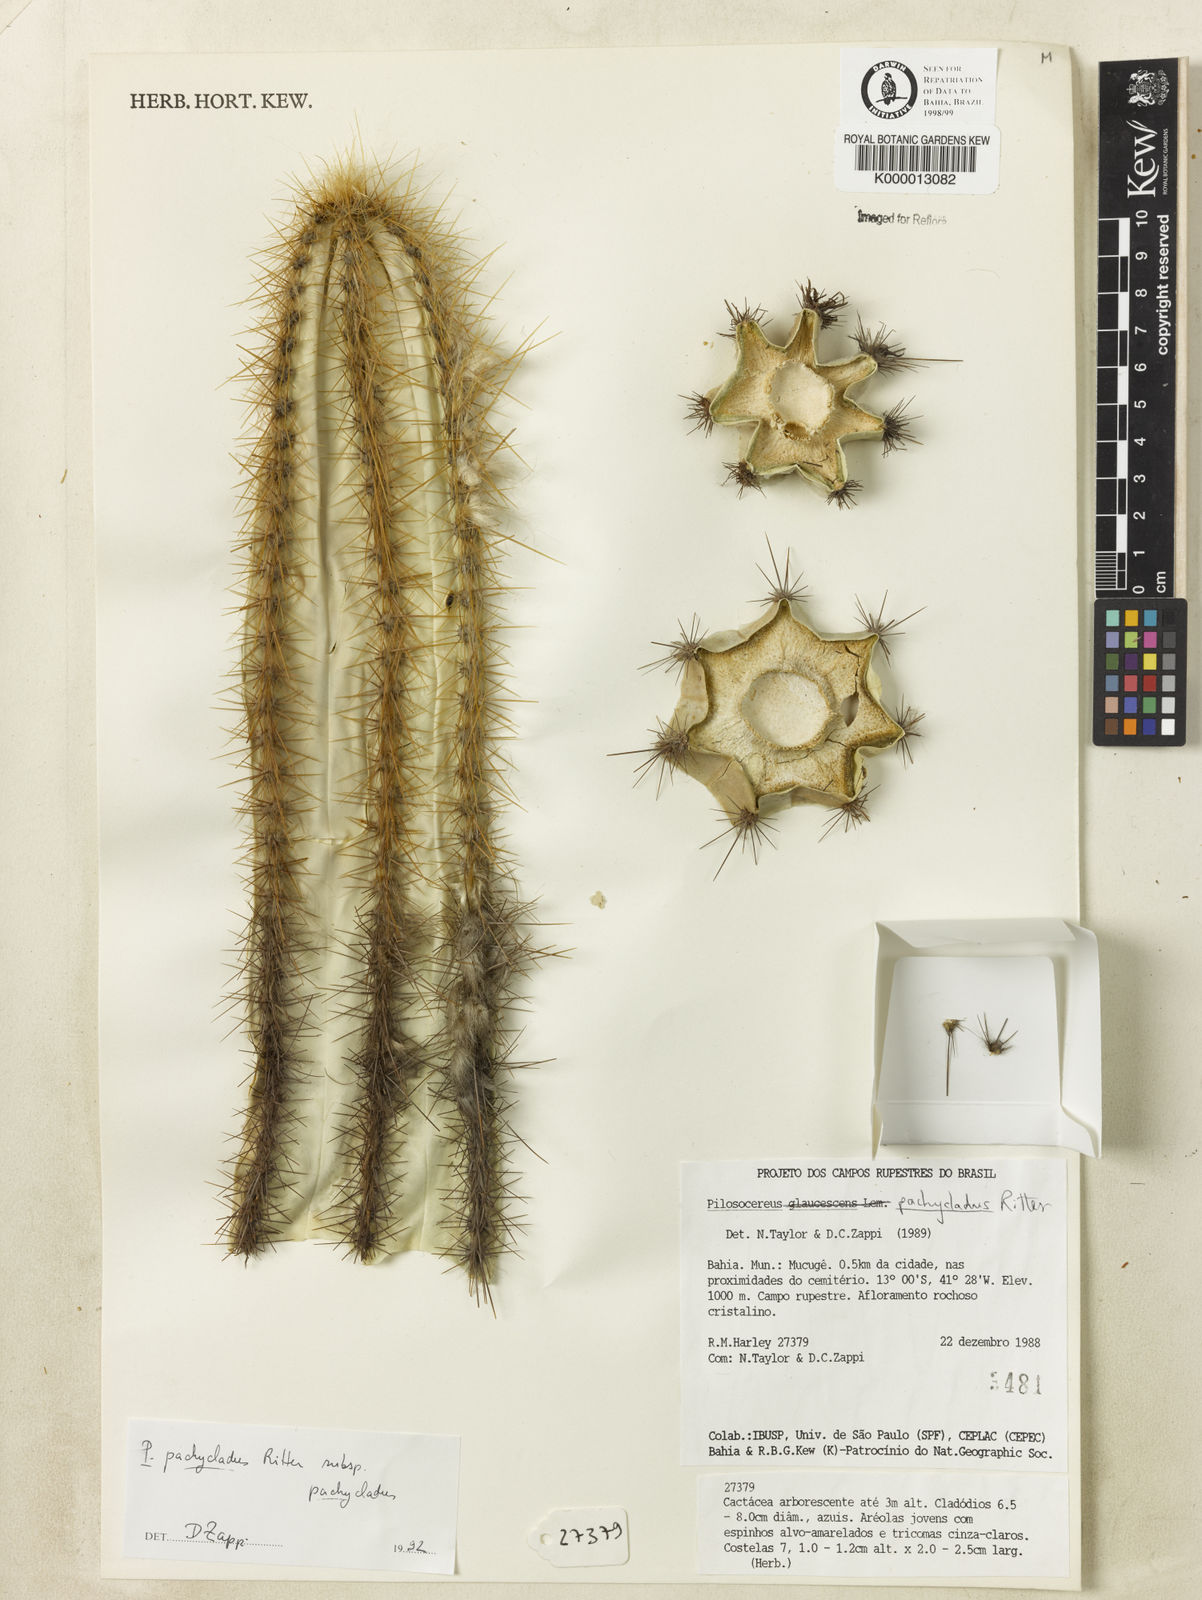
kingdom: Plantae
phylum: Tracheophyta
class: Magnoliopsida
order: Caryophyllales
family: Cactaceae
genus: Pilosocereus
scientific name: Pilosocereus pachycladus
